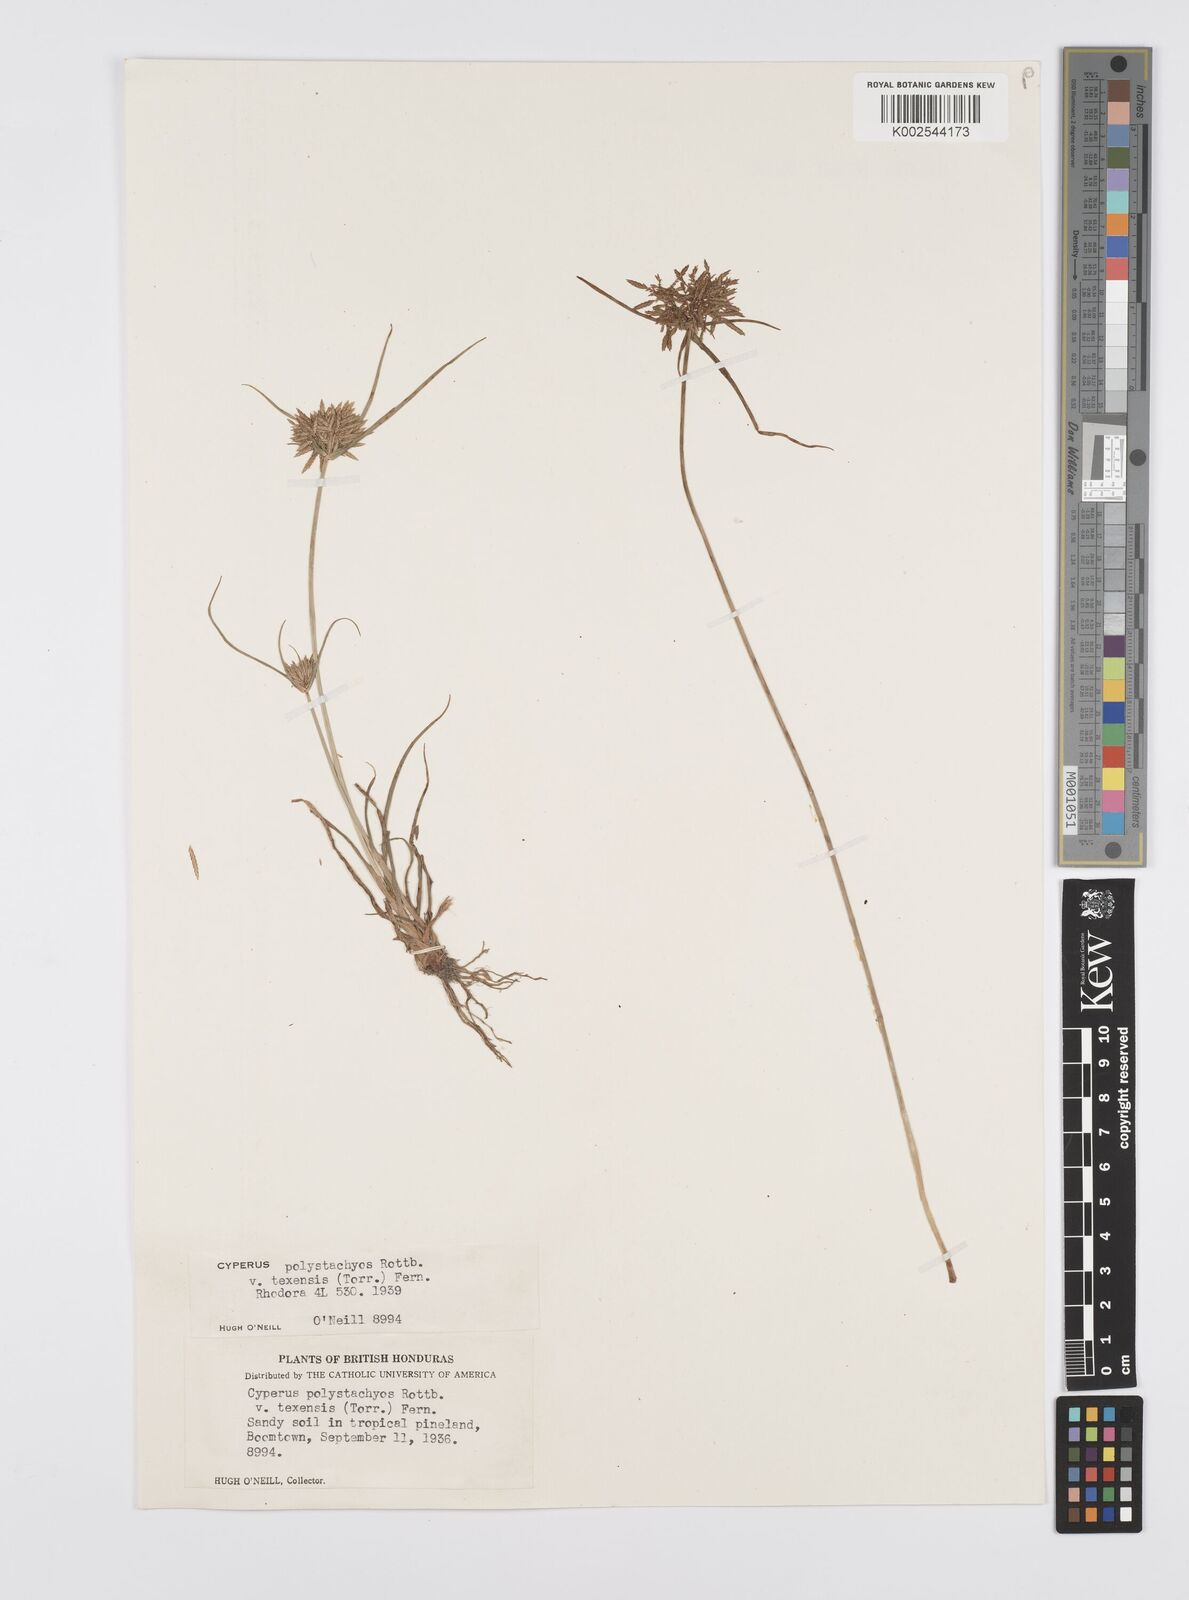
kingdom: Plantae
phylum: Tracheophyta
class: Liliopsida
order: Poales
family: Cyperaceae
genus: Cyperus
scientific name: Cyperus polystachyos
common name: Bunchy flat sedge
